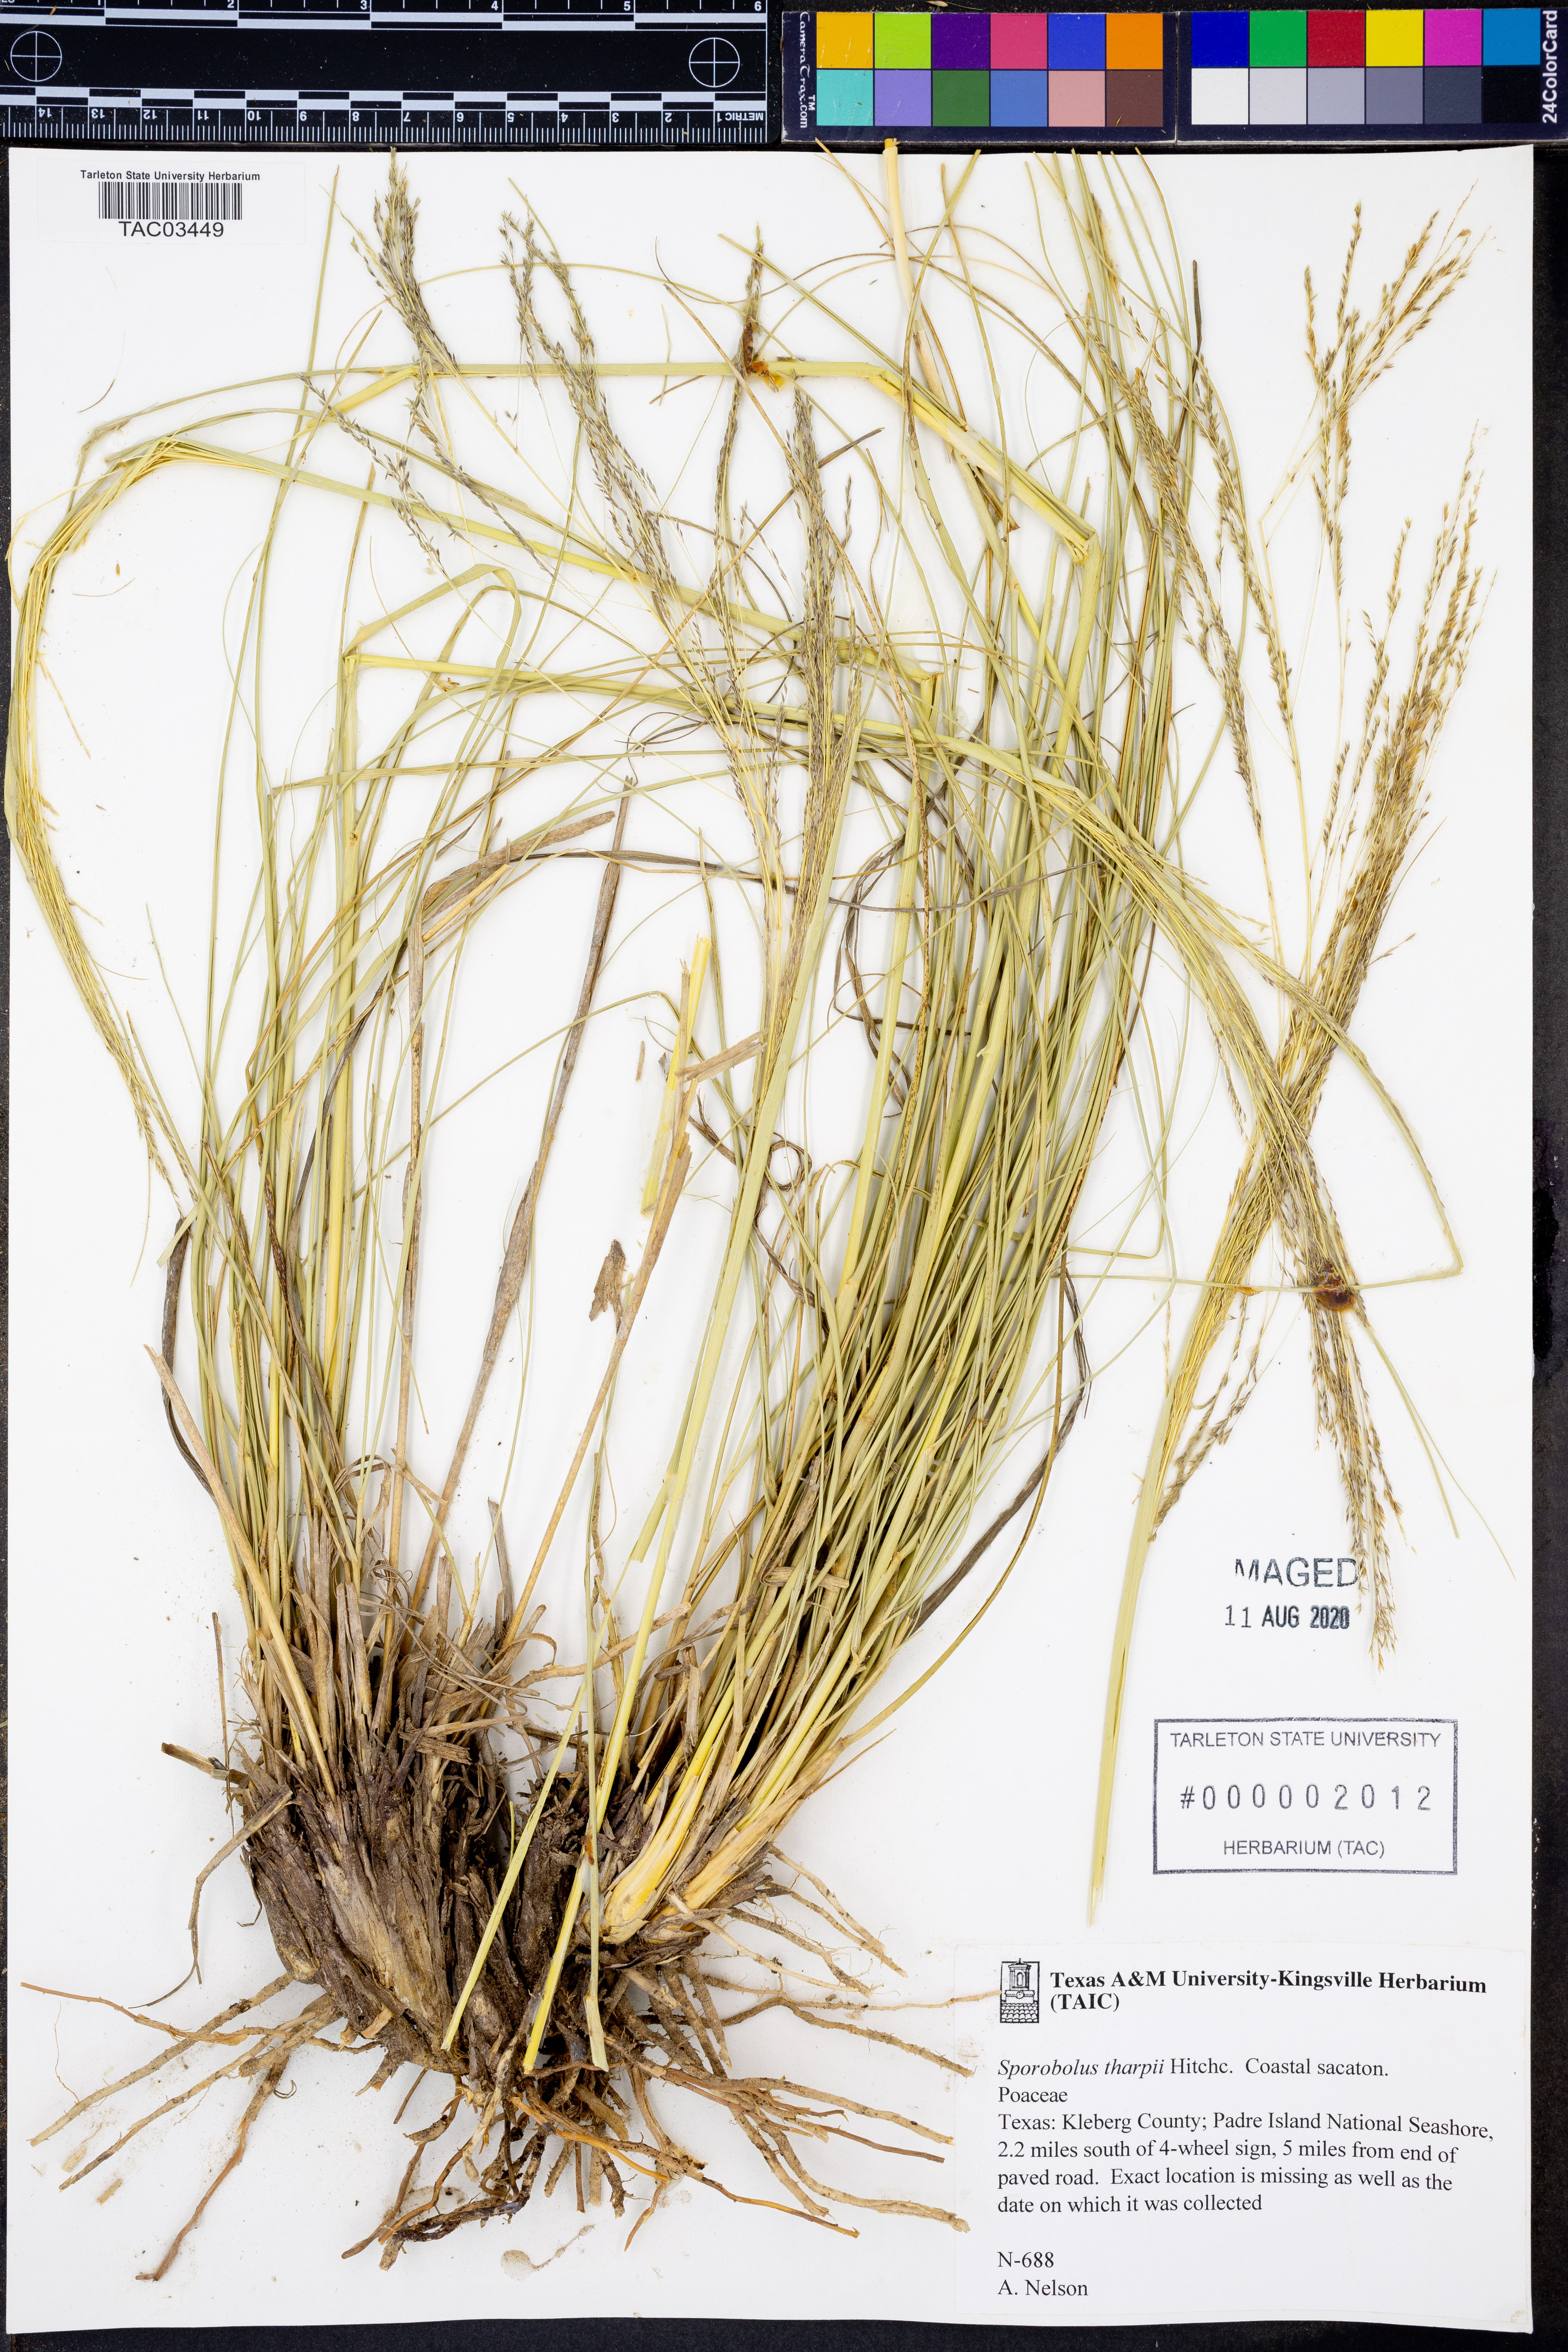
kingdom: Plantae
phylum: Tracheophyta
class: Liliopsida
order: Poales
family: Poaceae
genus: Sporobolus
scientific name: Sporobolus airoides
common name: Alkali sacaton
